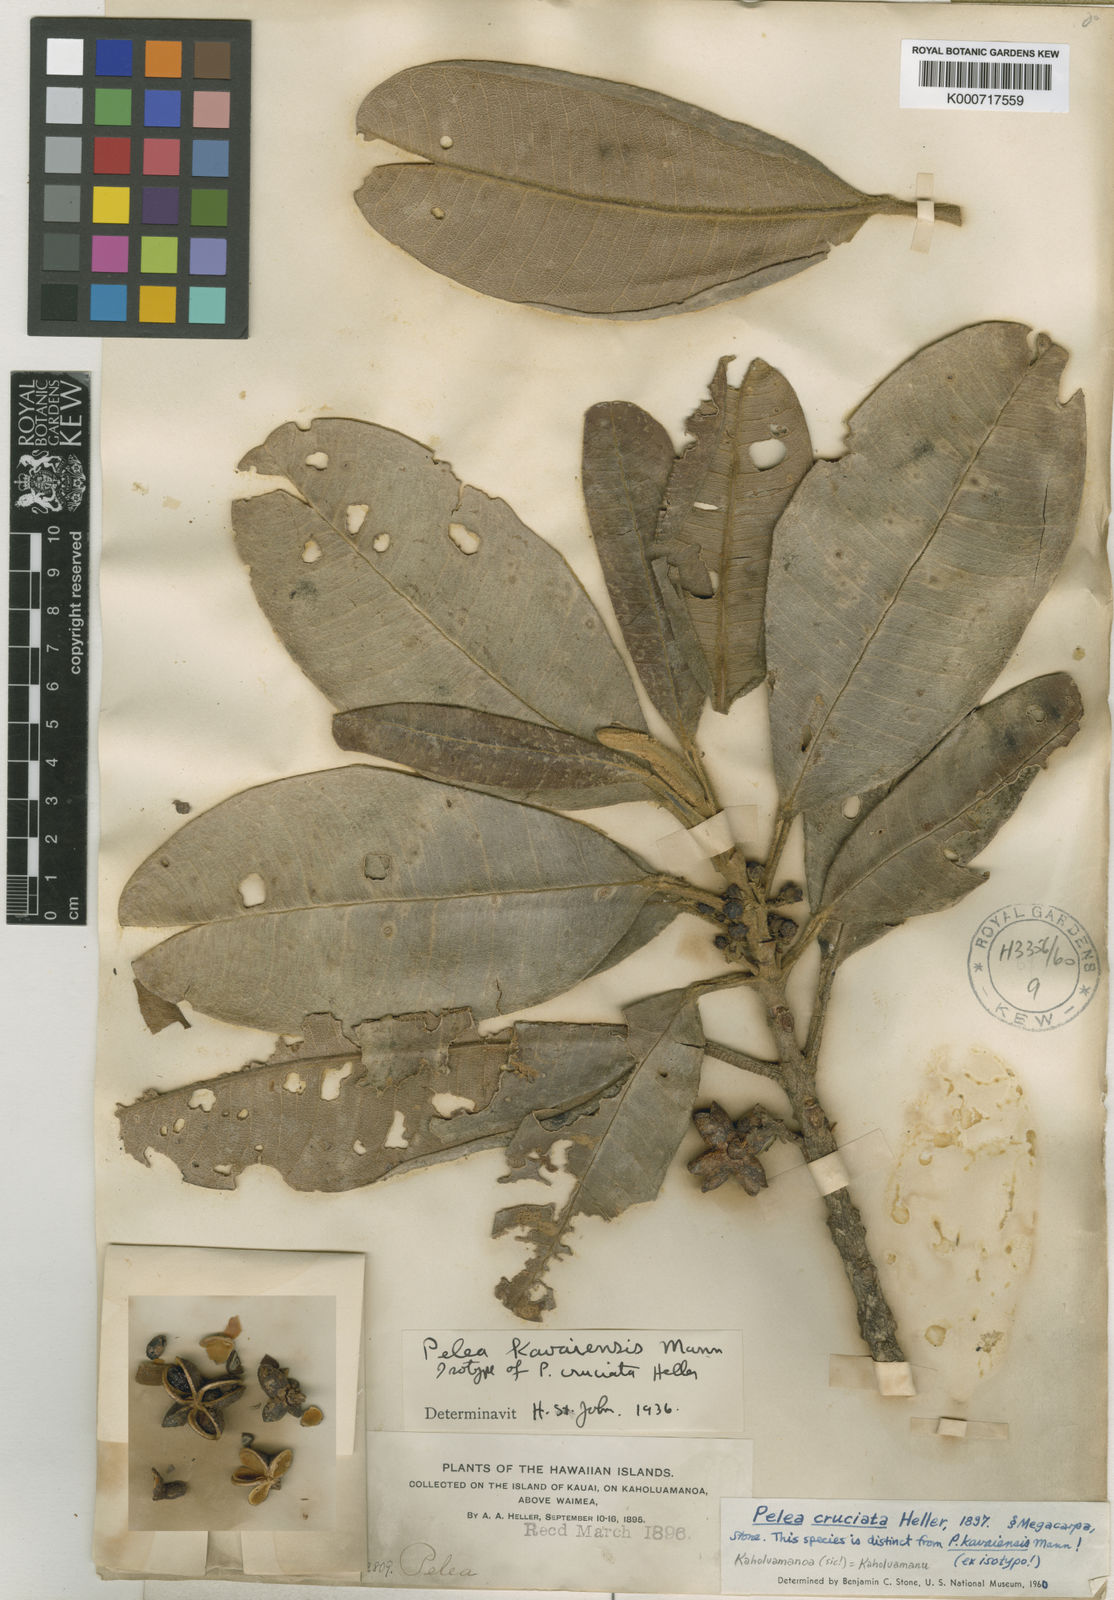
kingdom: Plantae
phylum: Tracheophyta
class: Magnoliopsida
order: Sapindales
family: Rutaceae
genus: Melicope
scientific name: Melicope cruciata
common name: Cross-bearing pelea
